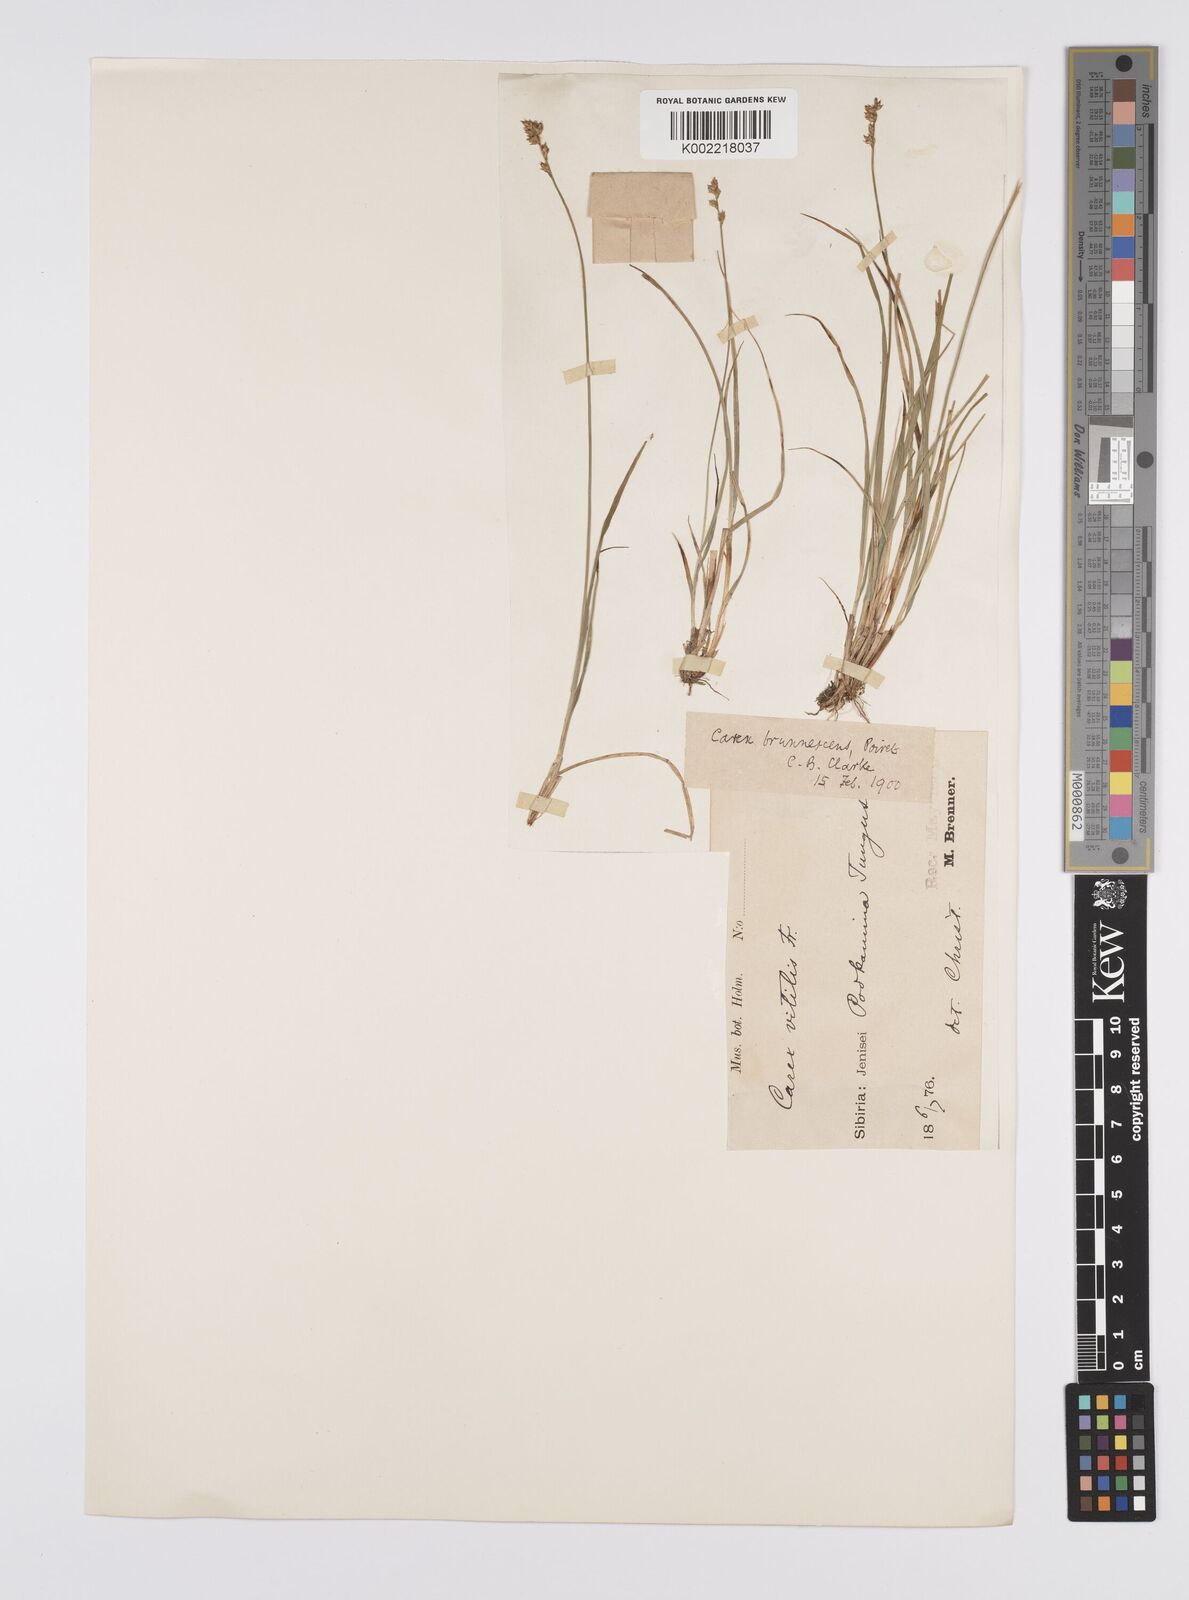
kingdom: Plantae
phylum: Tracheophyta
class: Liliopsida
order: Poales
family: Cyperaceae
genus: Carex
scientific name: Carex brunnescens
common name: Brown sedge
